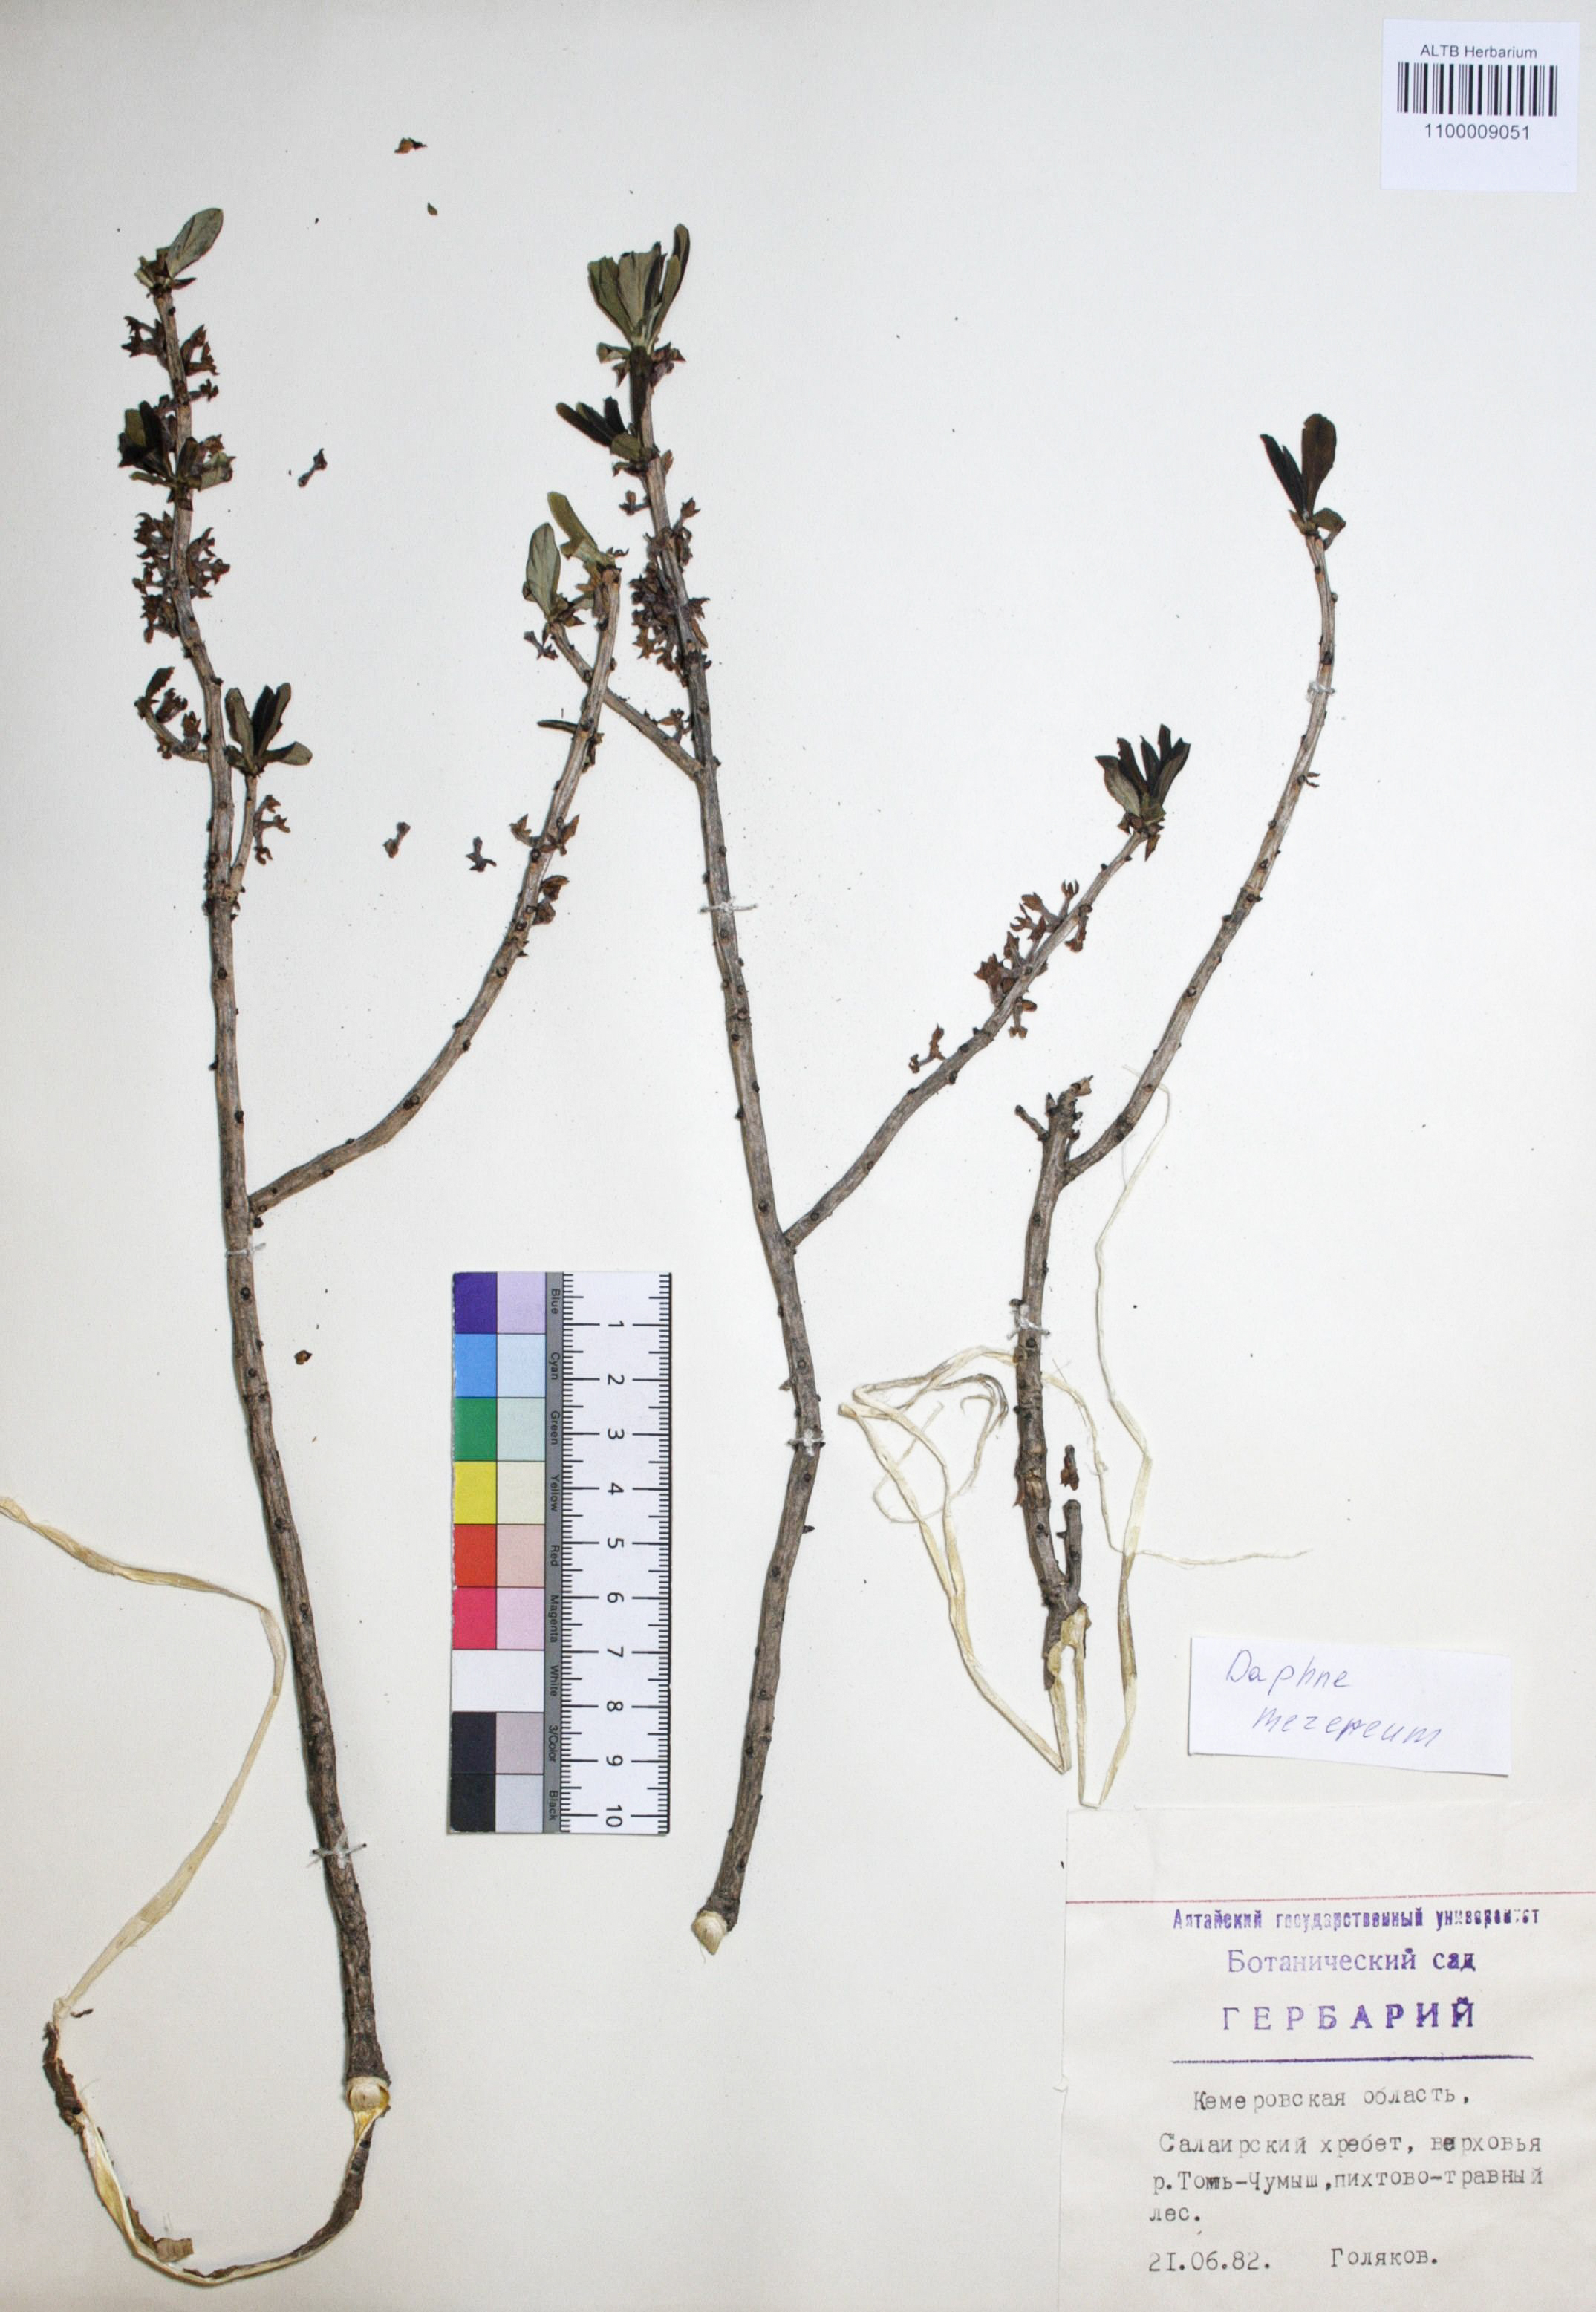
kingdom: Plantae
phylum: Tracheophyta
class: Magnoliopsida
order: Malvales
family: Thymelaeaceae
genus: Daphne
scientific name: Daphne mezereum
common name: Mezereon
